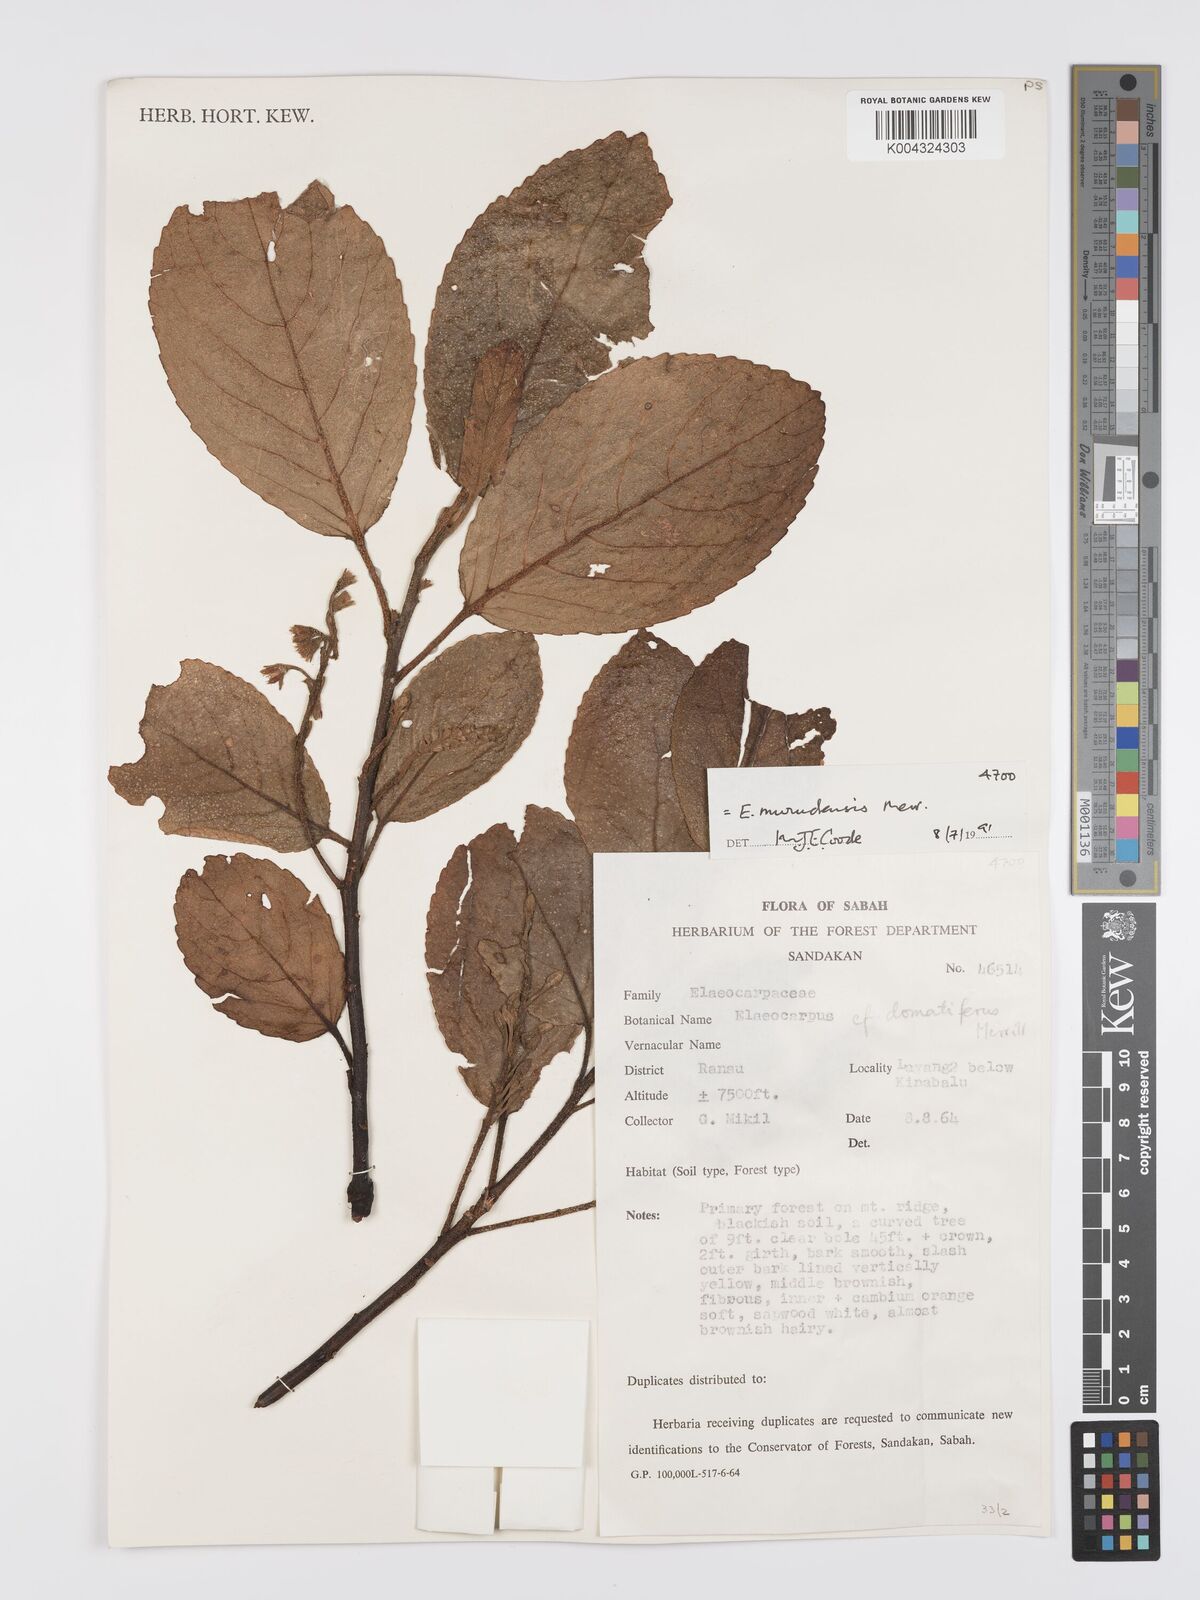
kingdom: Plantae
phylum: Tracheophyta
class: Magnoliopsida
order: Oxalidales
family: Elaeocarpaceae
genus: Elaeocarpus
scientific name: Elaeocarpus murudensis
